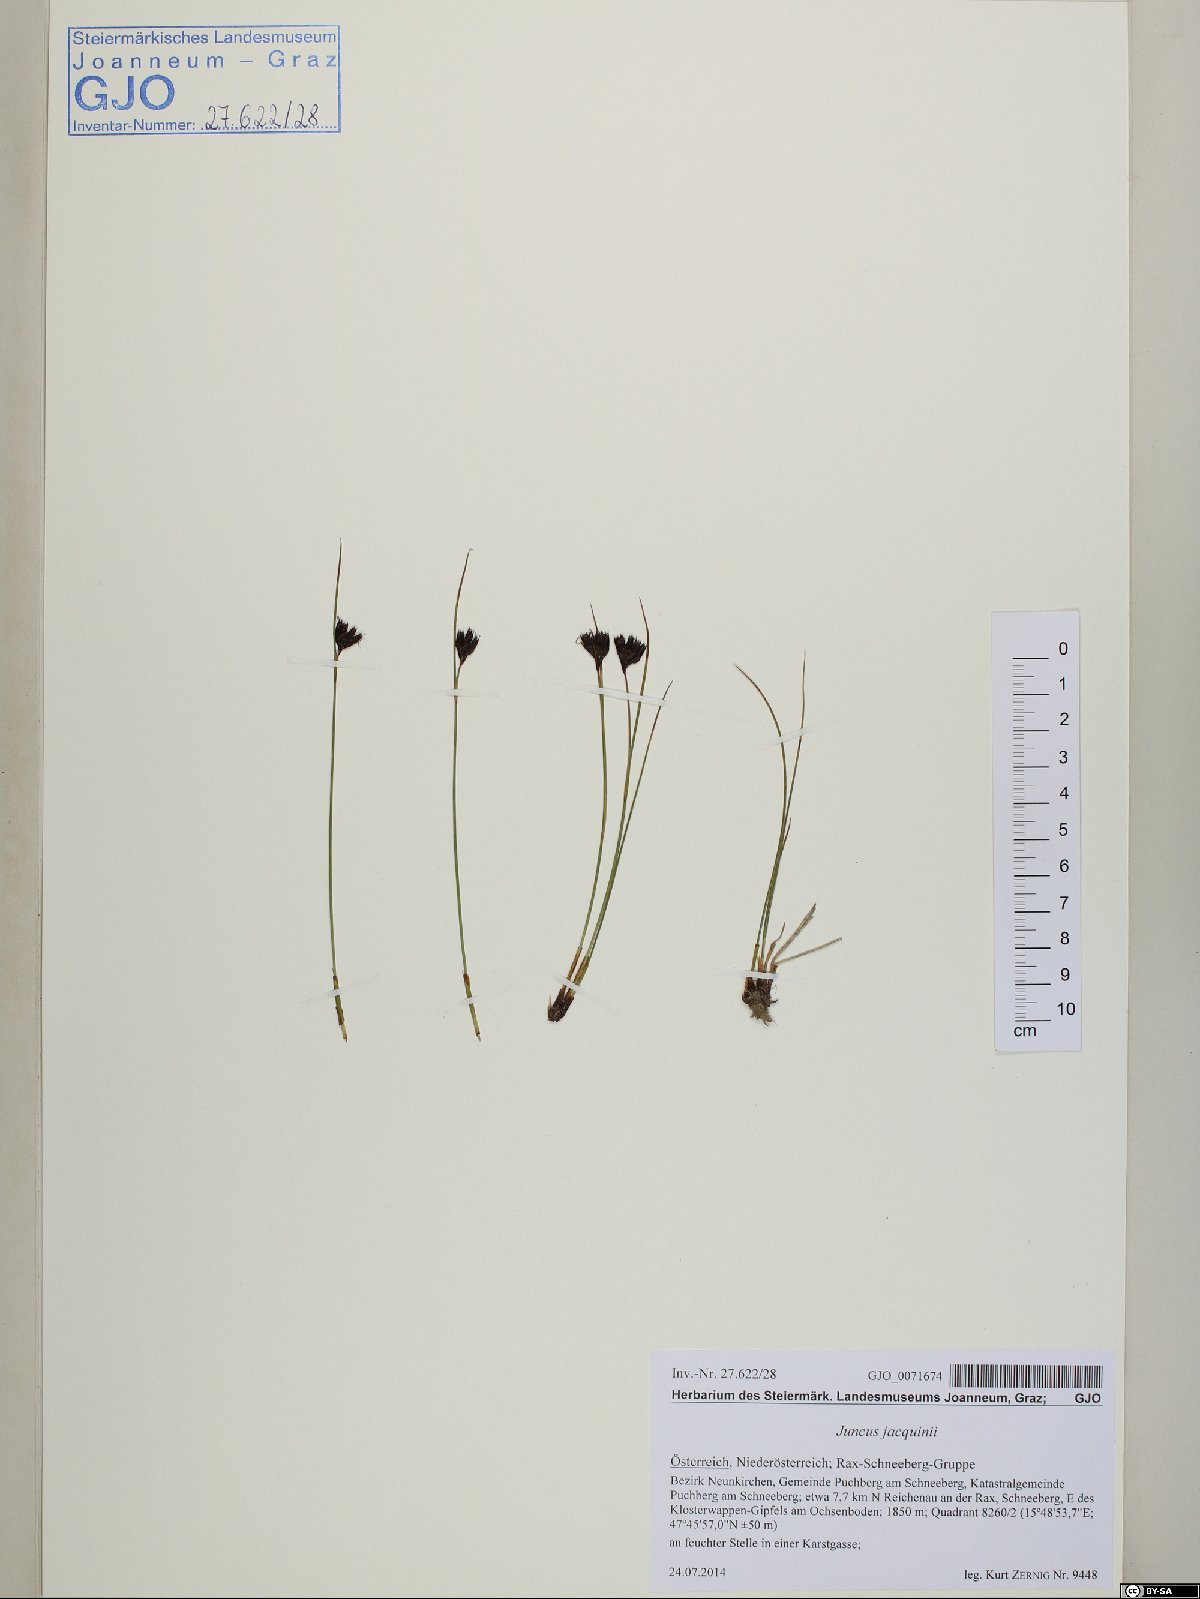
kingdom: Plantae
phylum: Tracheophyta
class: Liliopsida
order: Poales
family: Juncaceae
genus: Juncus
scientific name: Juncus jacquinii
